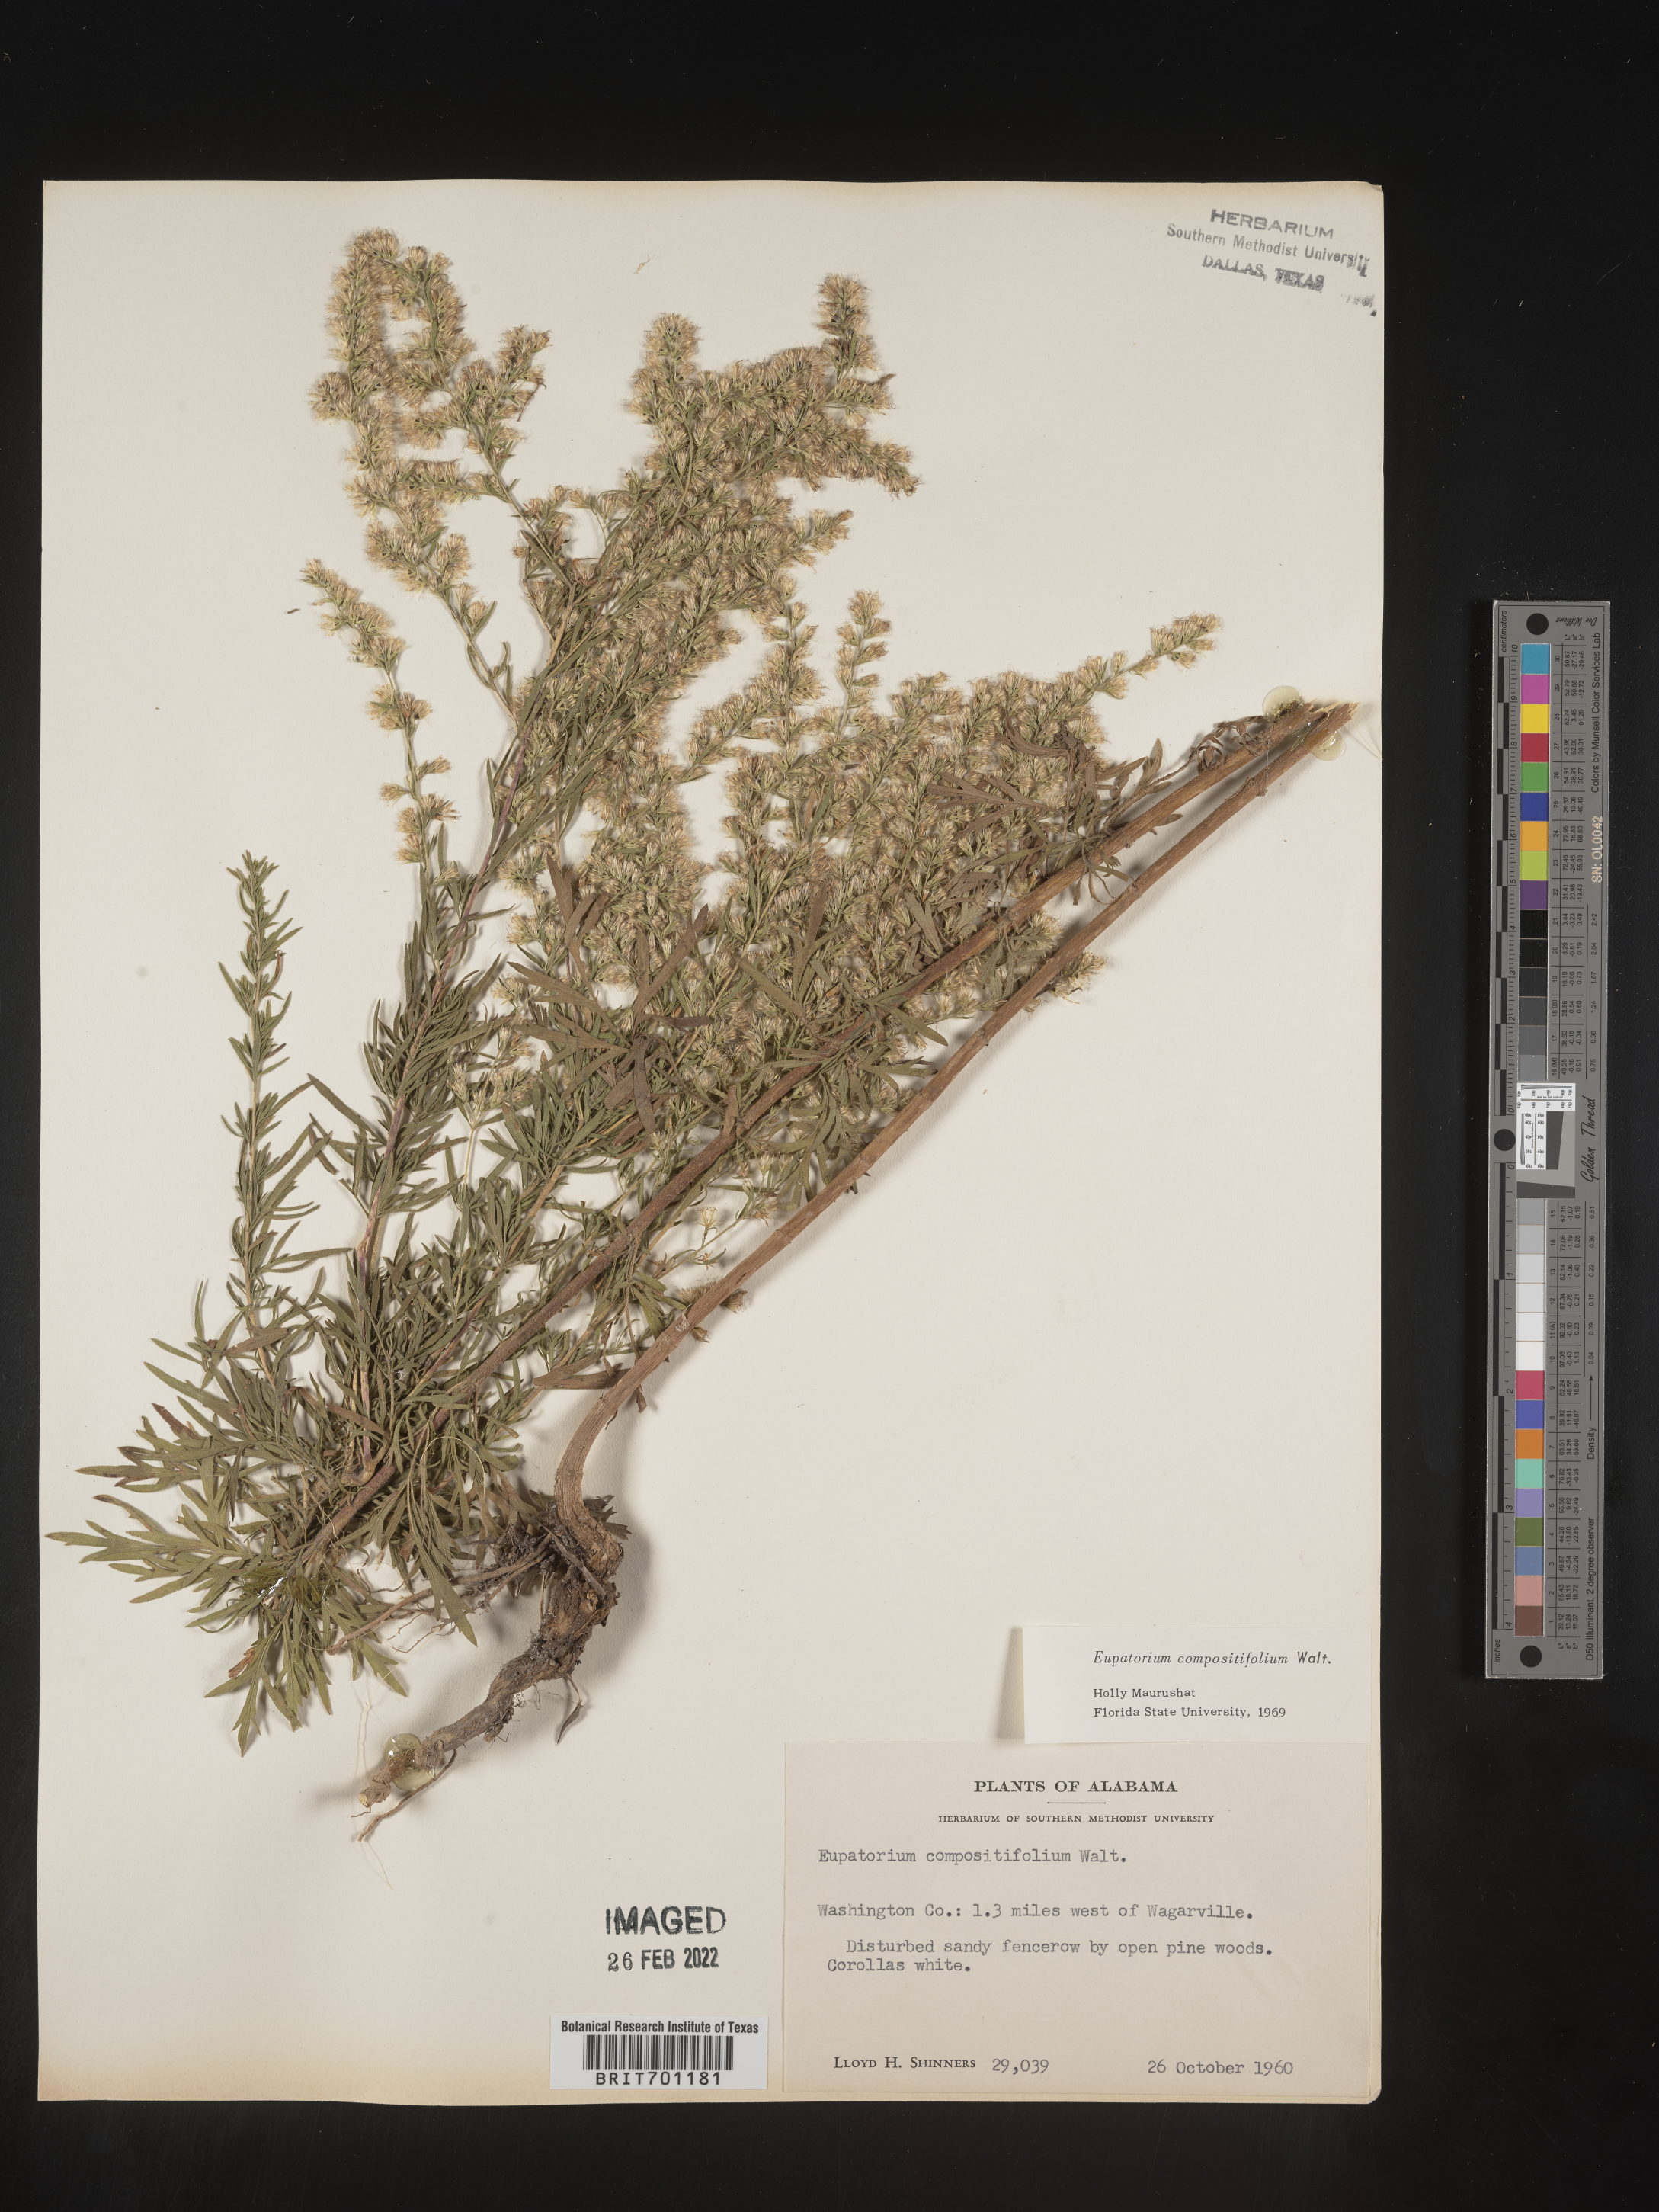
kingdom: Plantae
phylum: Tracheophyta
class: Magnoliopsida
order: Asterales
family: Asteraceae
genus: Eupatorium
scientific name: Eupatorium compositifolium
